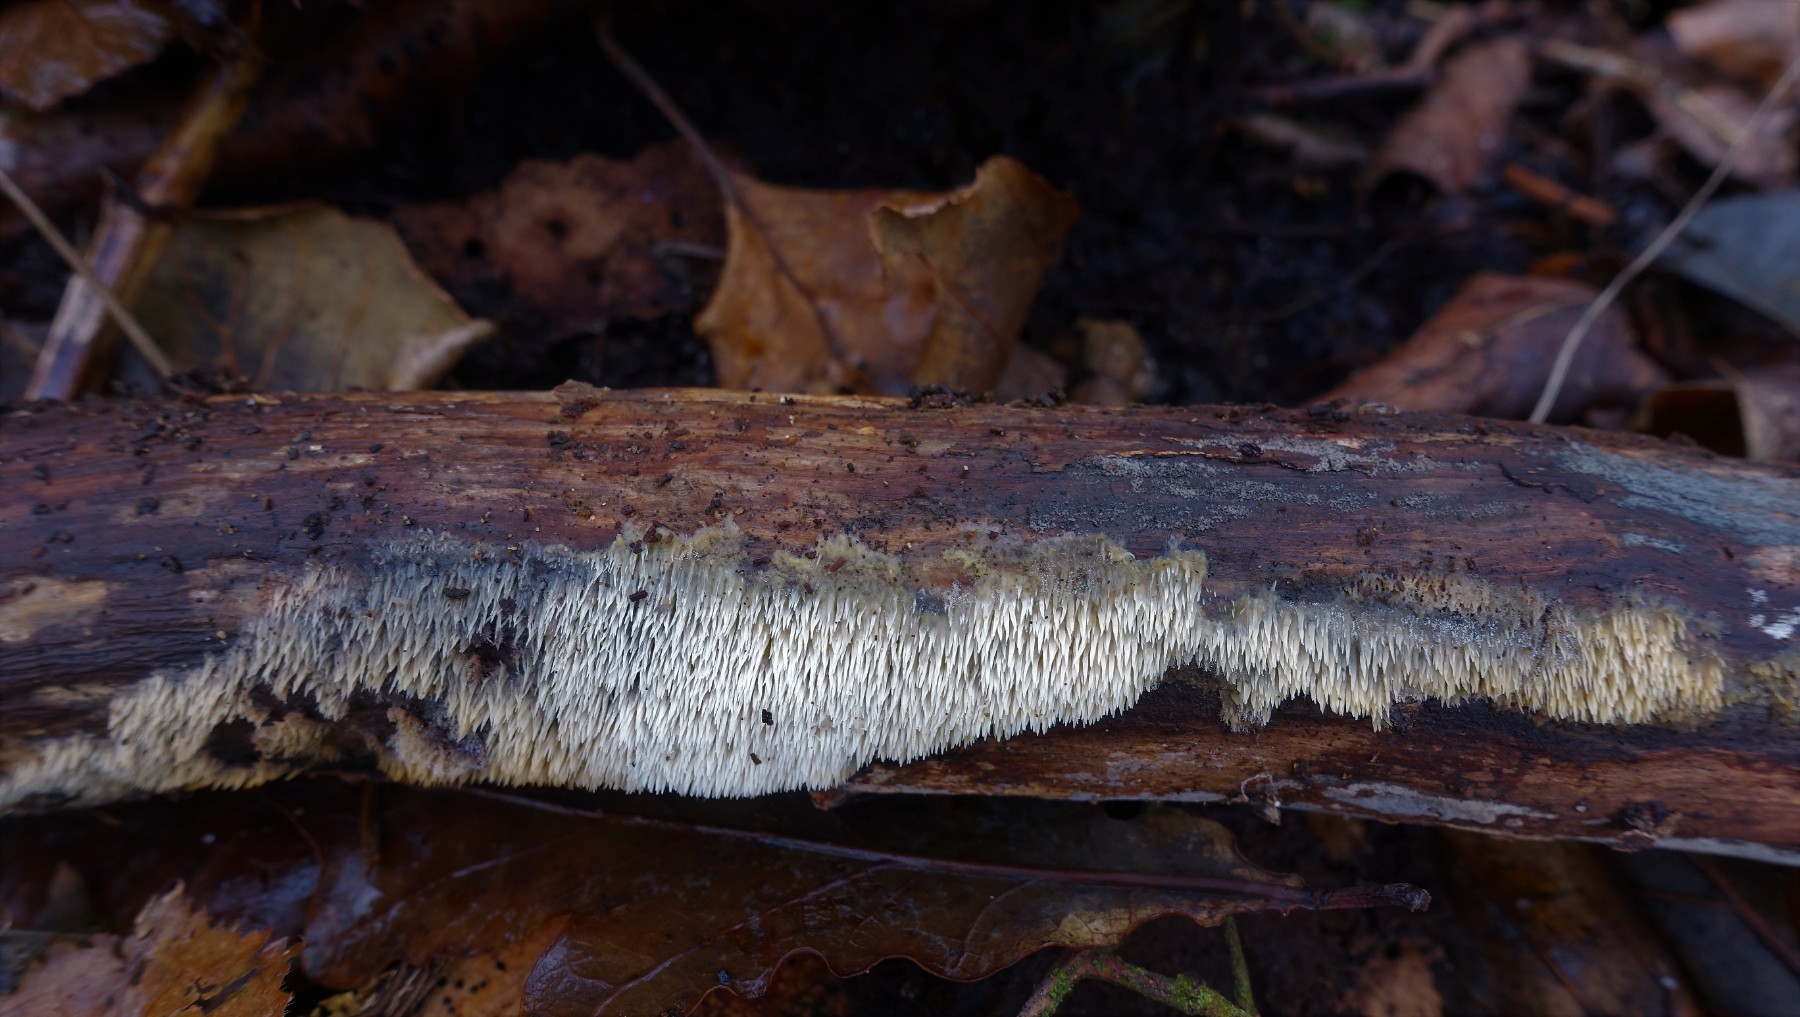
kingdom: Fungi
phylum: Basidiomycota
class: Agaricomycetes
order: Polyporales
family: Meruliaceae
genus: Mycoacia
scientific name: Mycoacia uda
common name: citrongul vokspig
